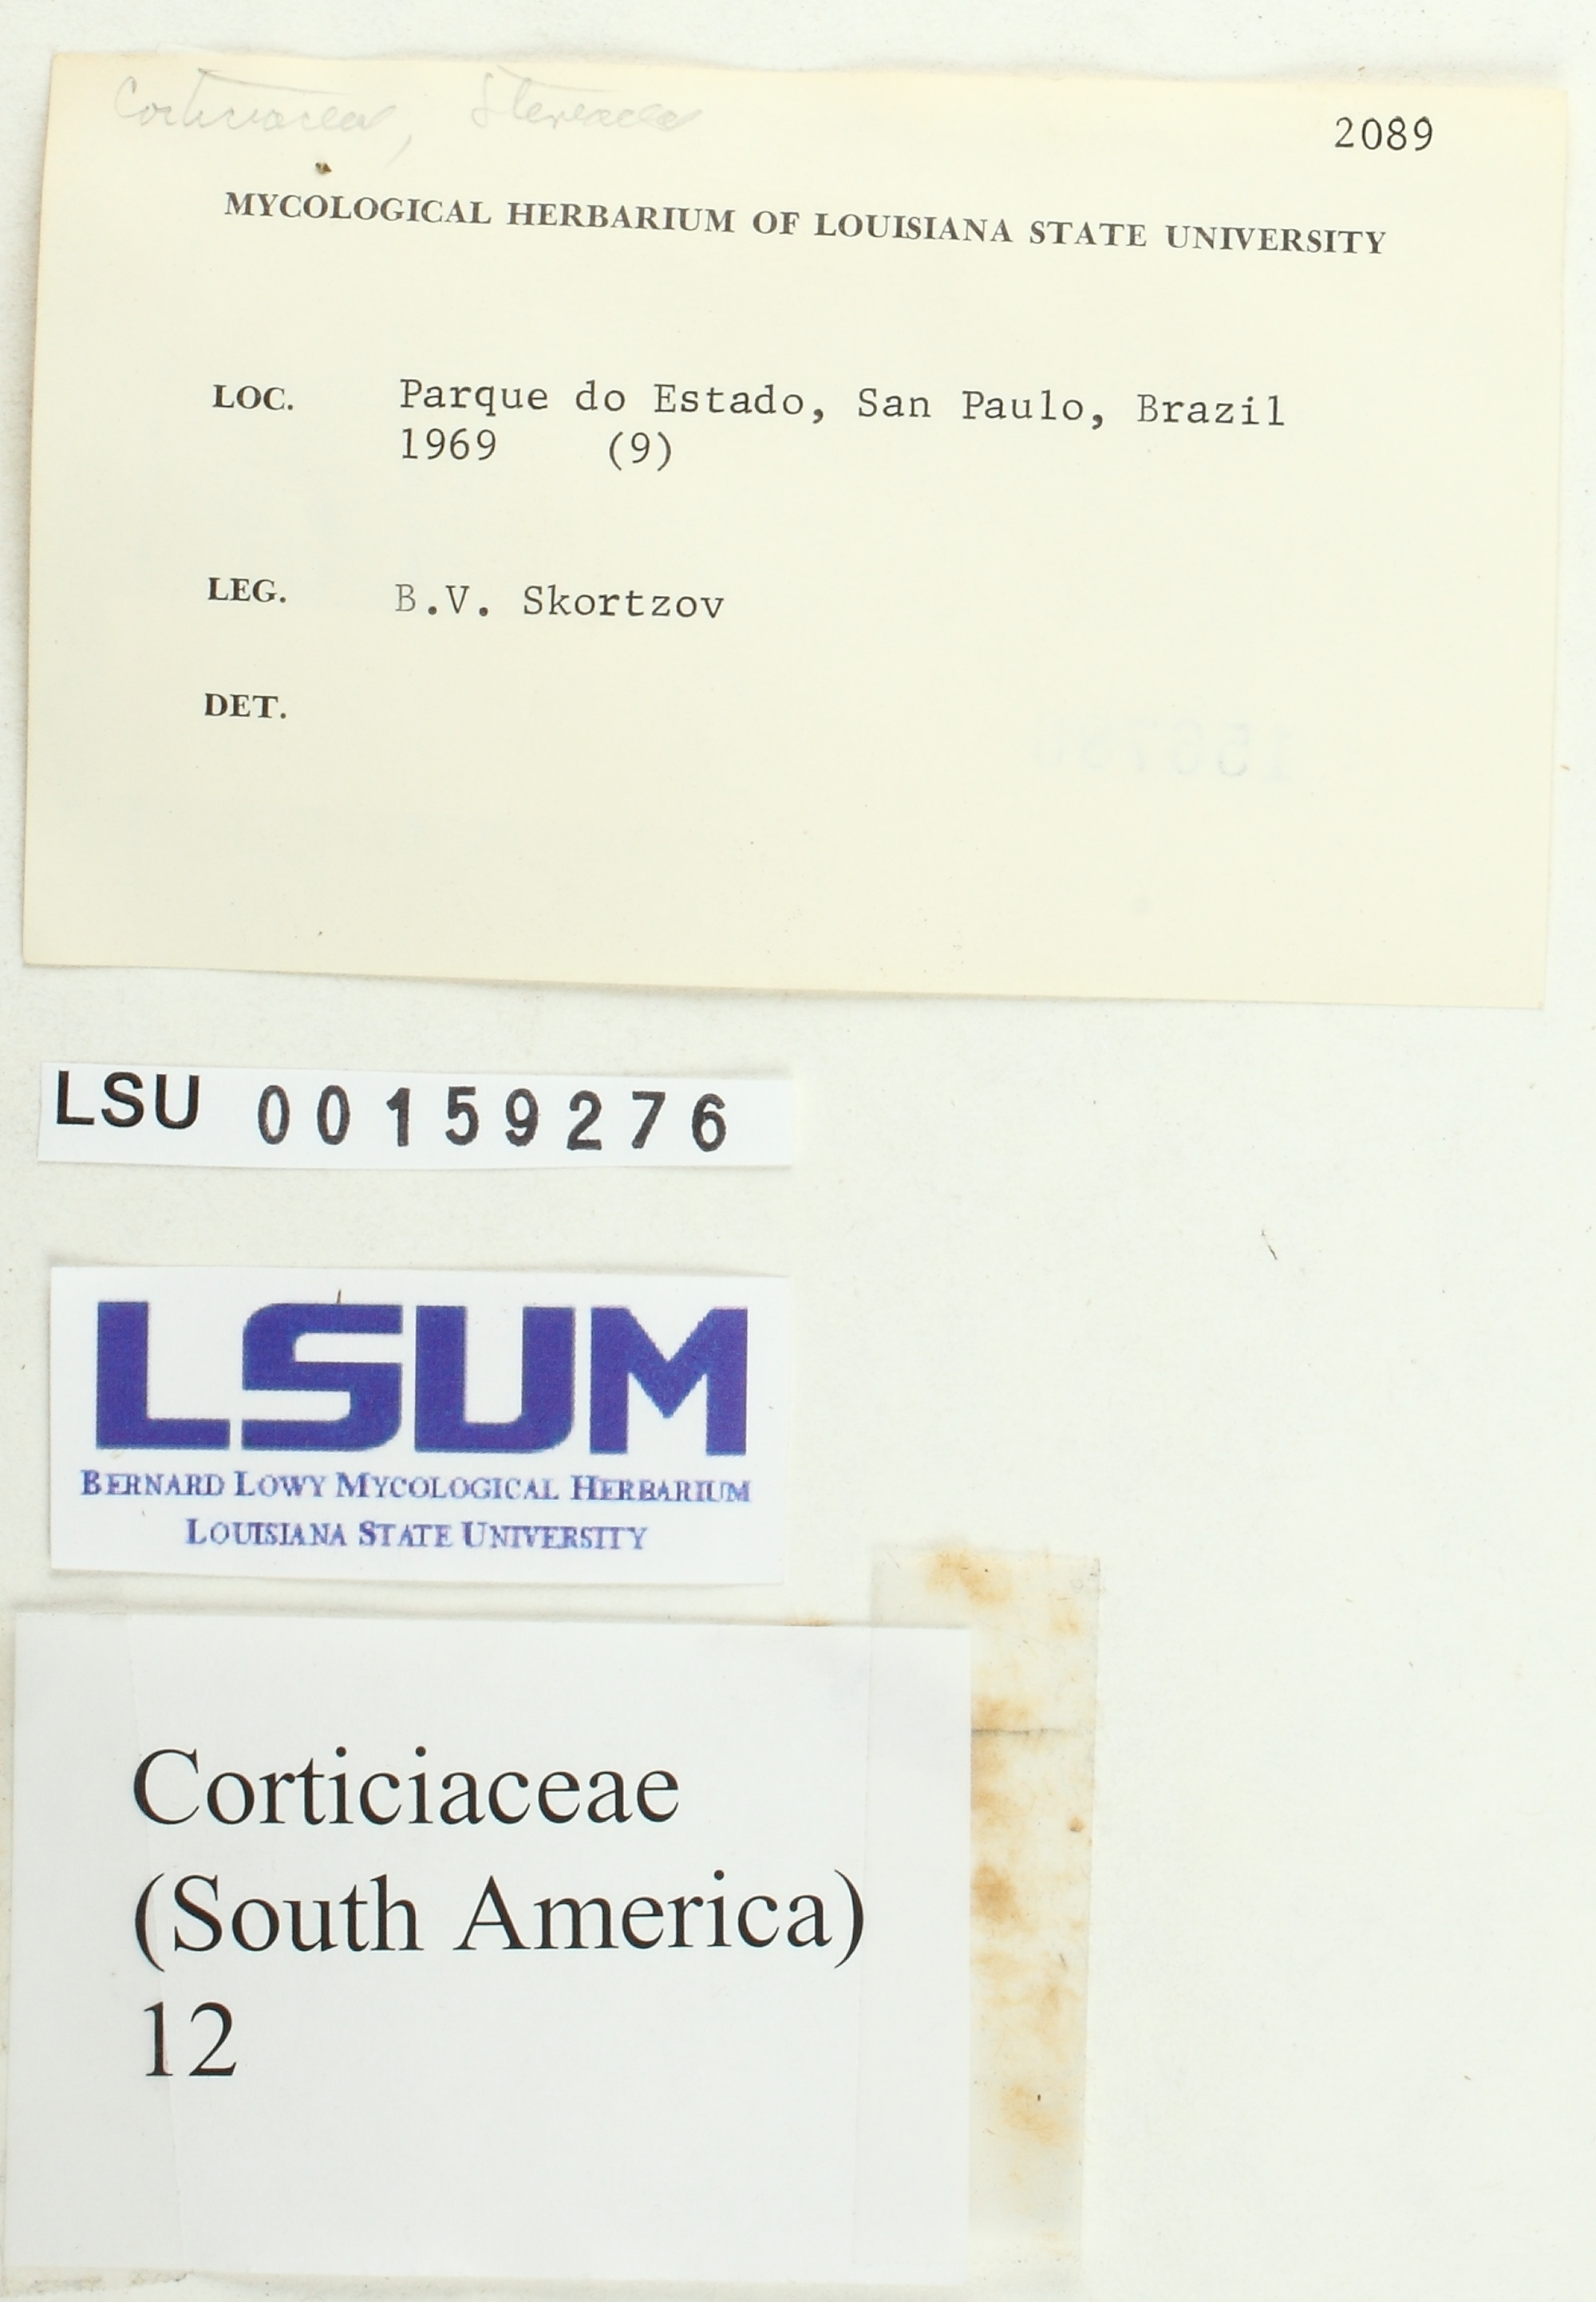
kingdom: Fungi
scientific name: Fungi
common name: Fungi
